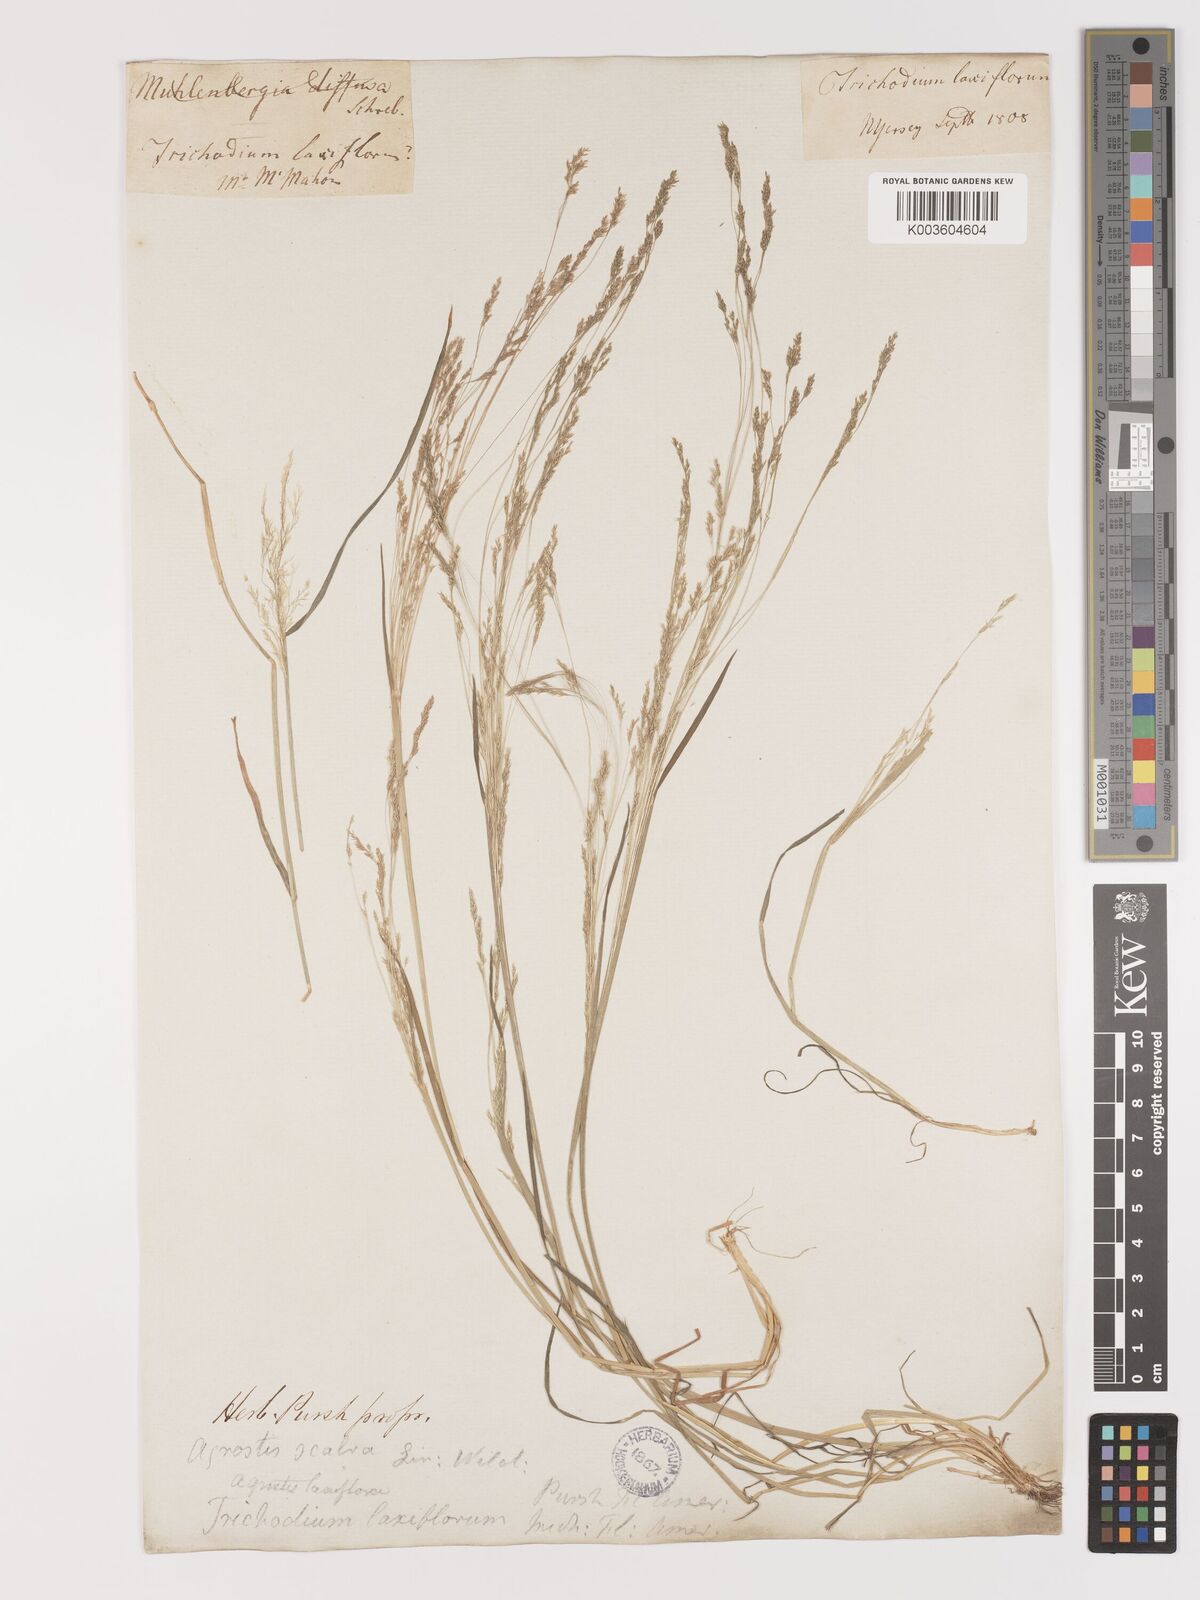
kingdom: Plantae
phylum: Tracheophyta
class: Liliopsida
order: Poales
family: Poaceae
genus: Agrostis
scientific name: Agrostis hyemalis
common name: Small bent
